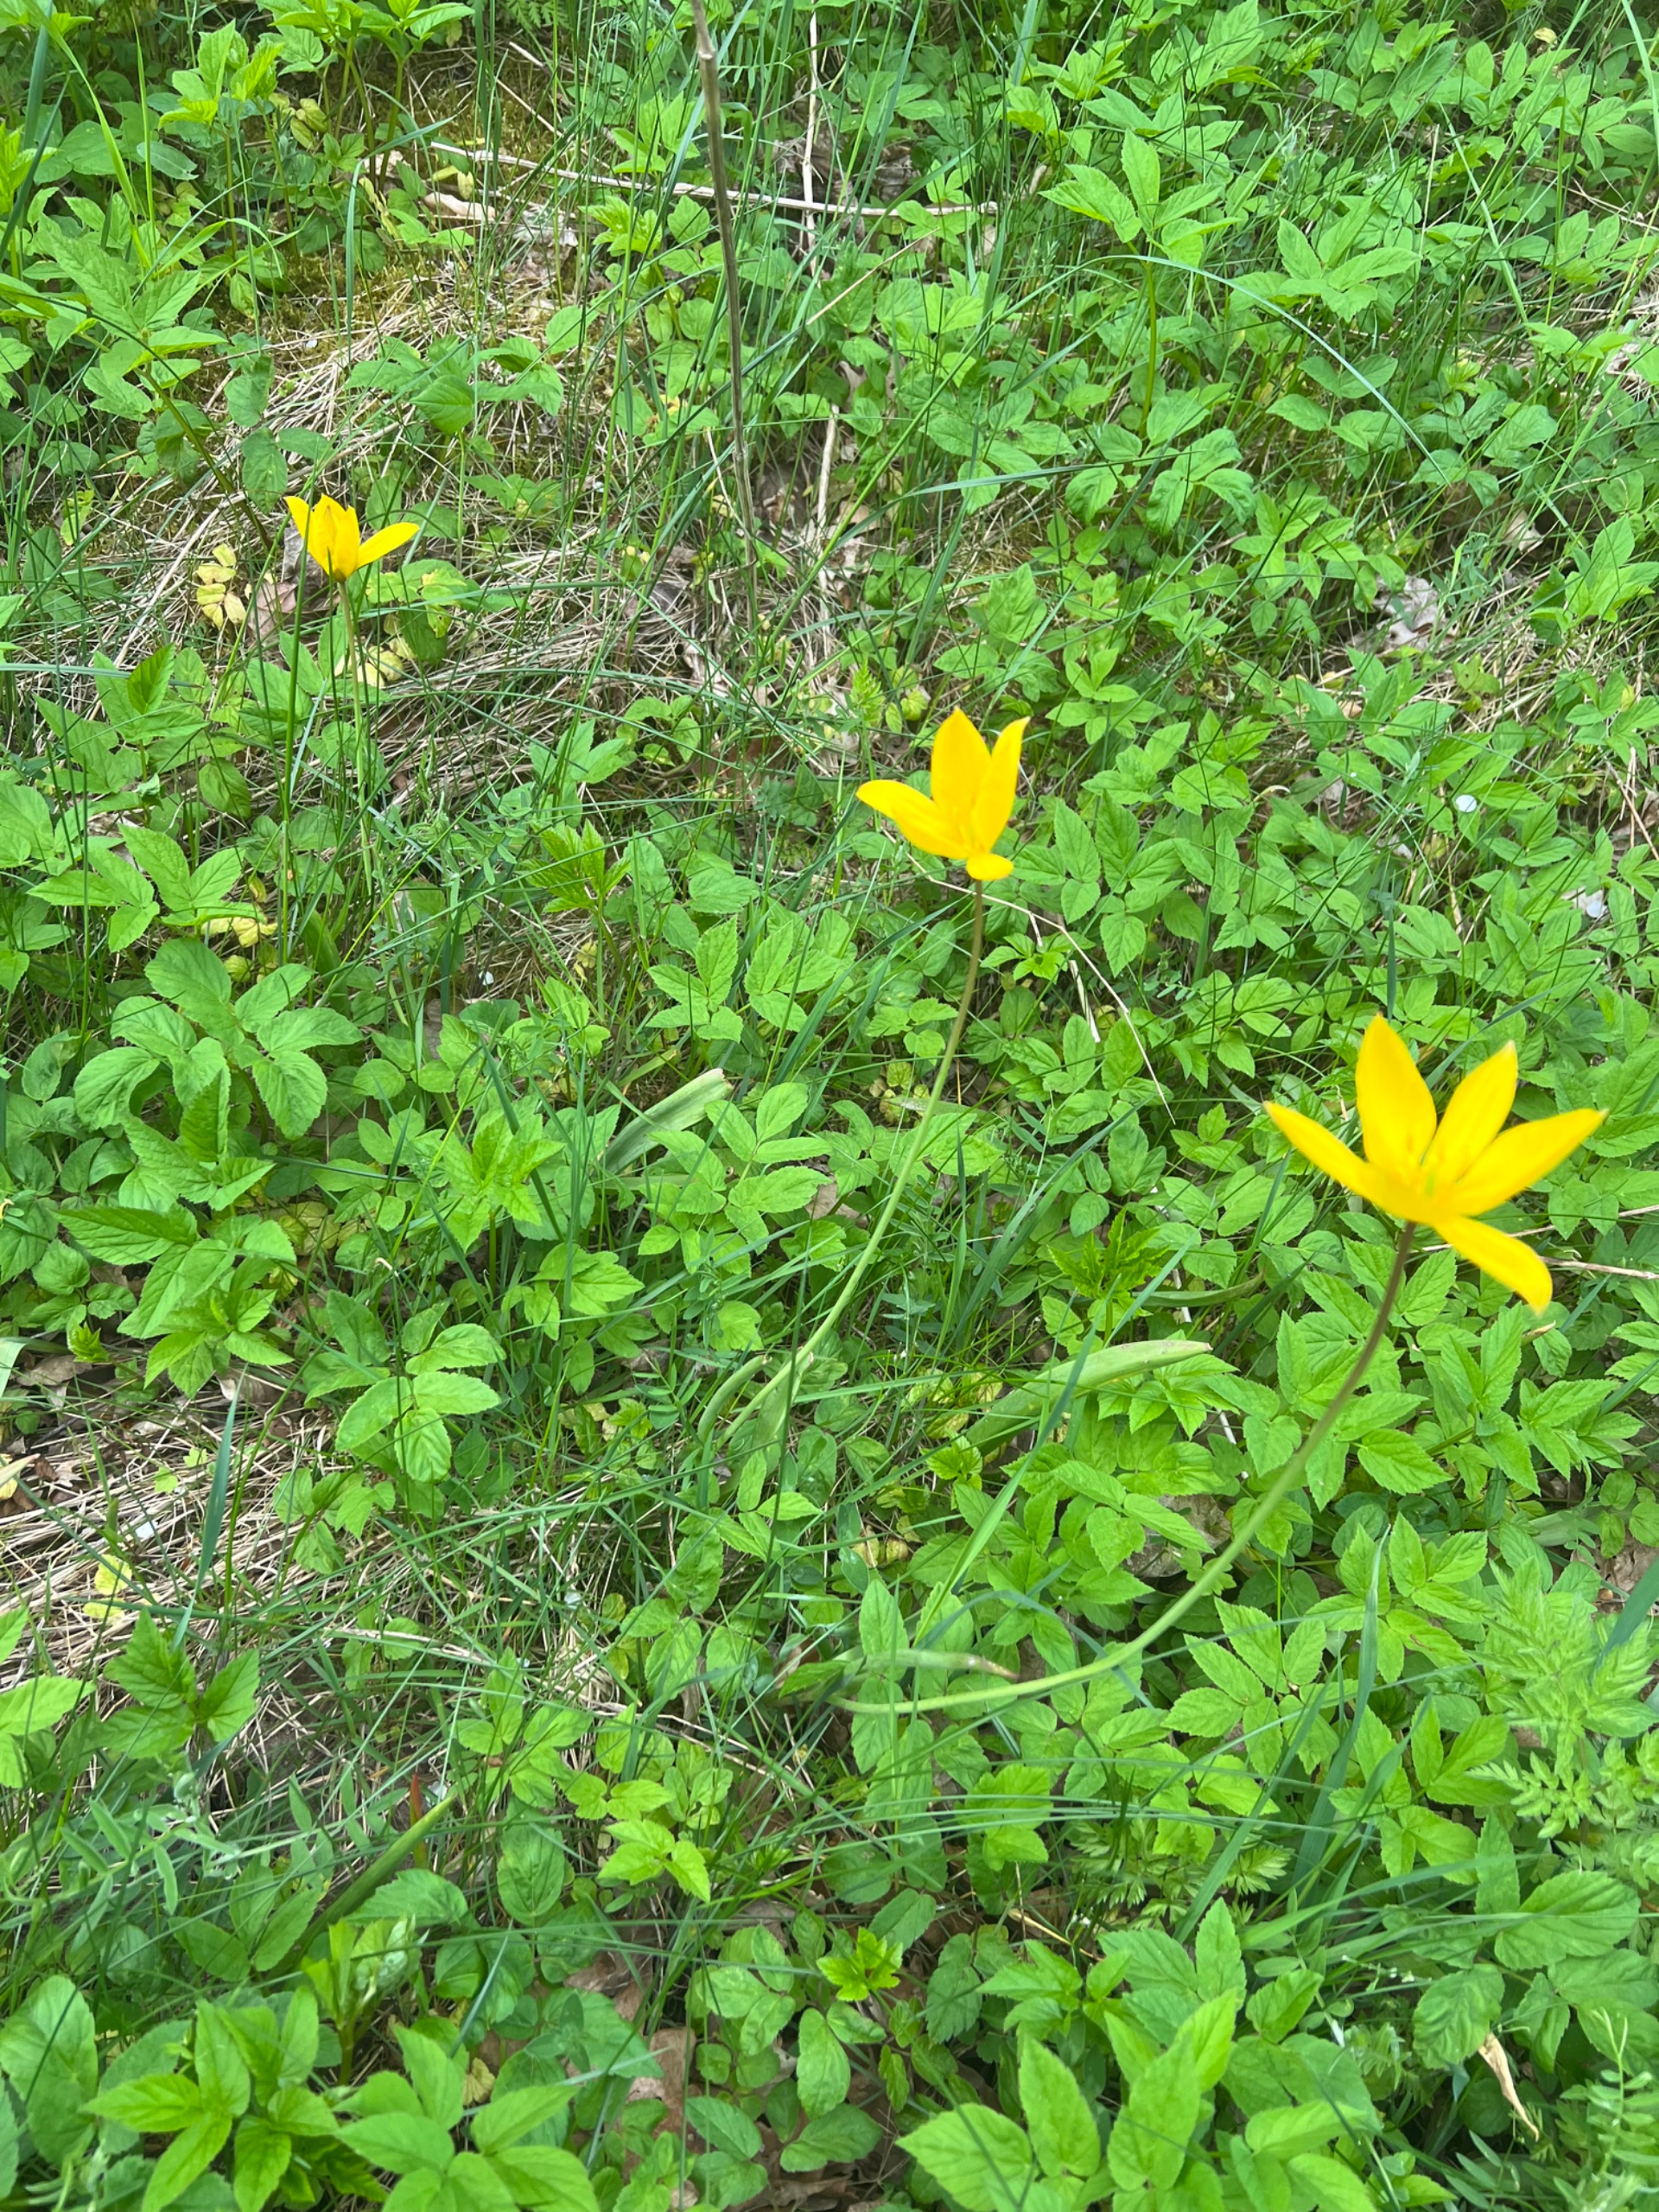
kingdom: Plantae
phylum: Tracheophyta
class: Liliopsida
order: Liliales
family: Liliaceae
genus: Tulipa
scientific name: Tulipa sylvestris
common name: Vild tulipan
